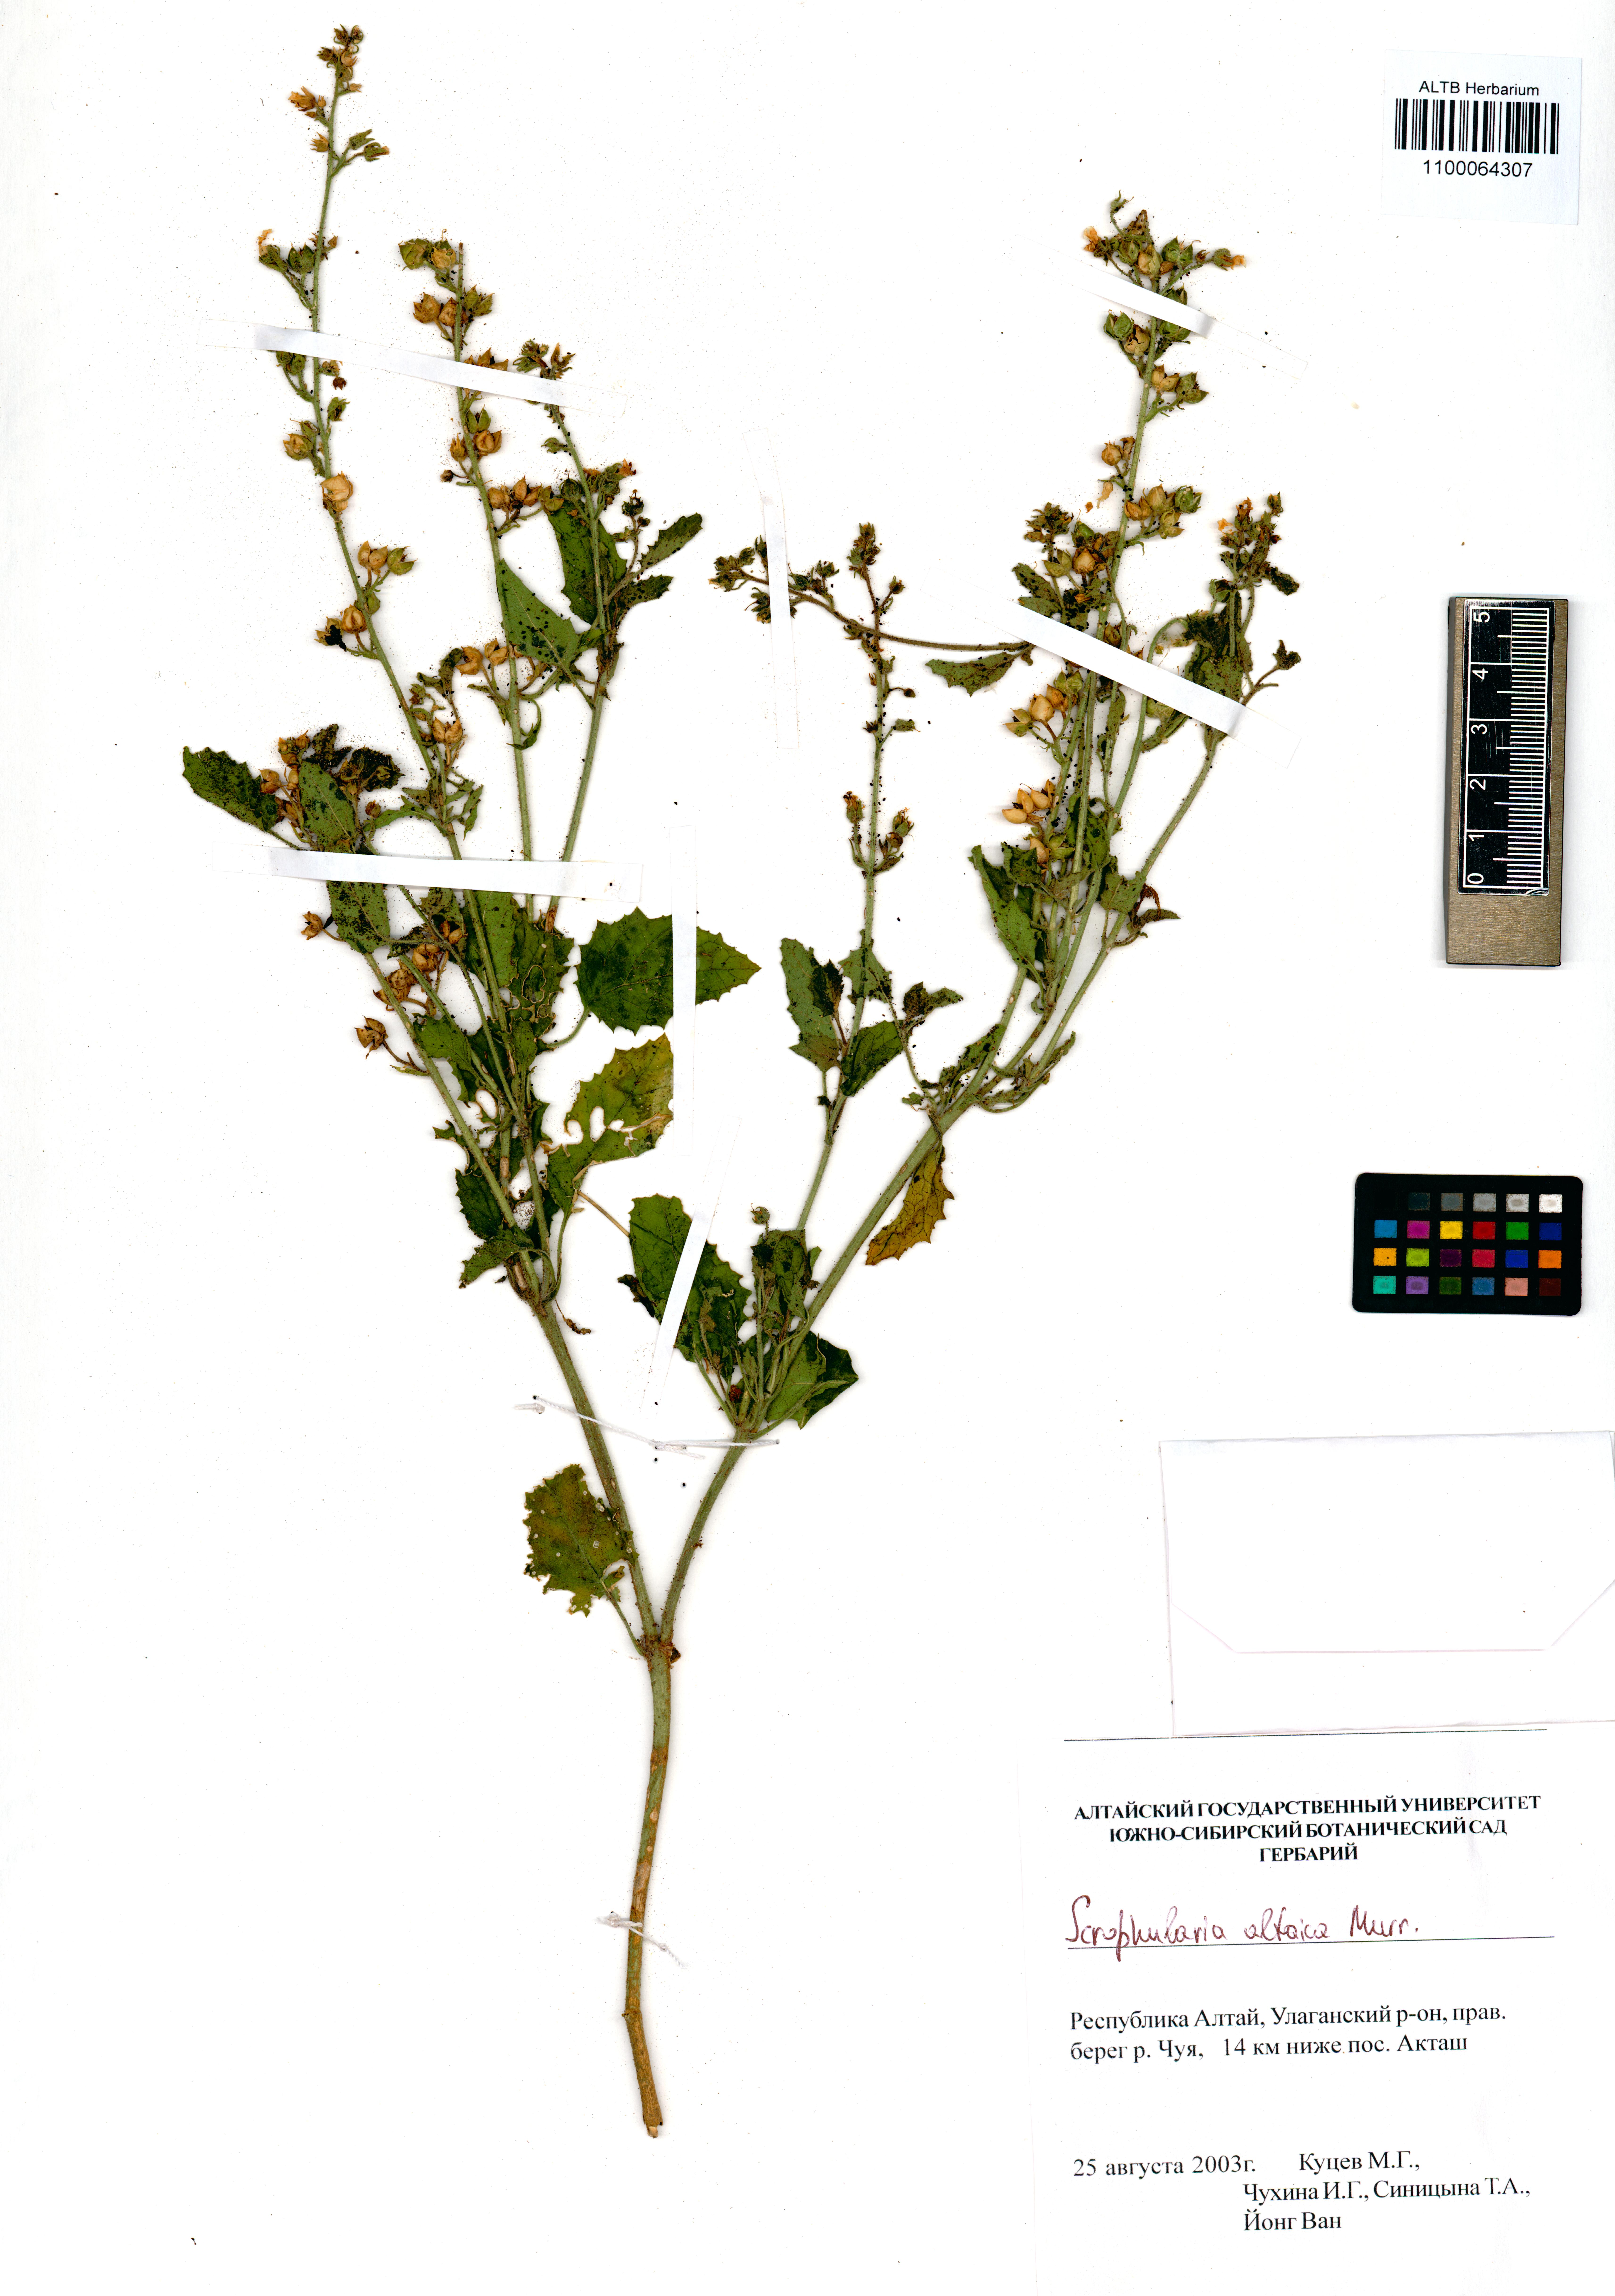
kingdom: Plantae
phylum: Tracheophyta
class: Magnoliopsida
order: Lamiales
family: Scrophulariaceae
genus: Scrophularia
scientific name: Scrophularia altaica
